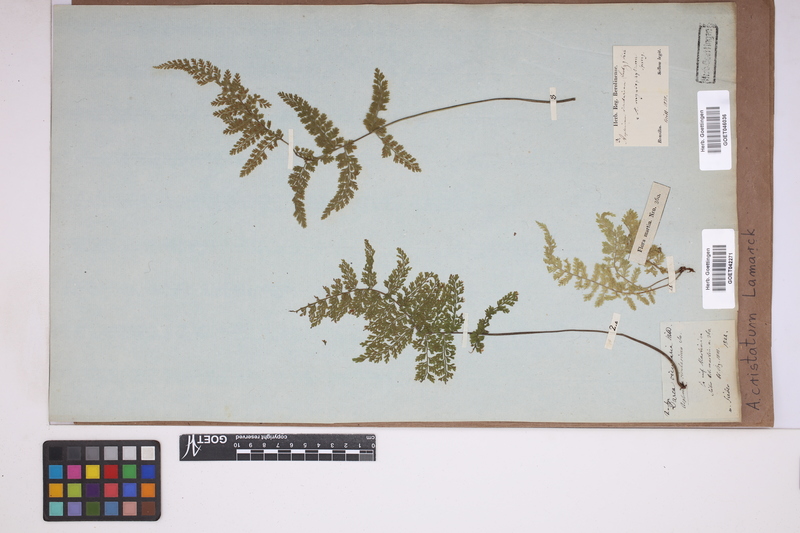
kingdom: Plantae
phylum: Tracheophyta
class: Polypodiopsida
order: Polypodiales
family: Aspleniaceae
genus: Asplenium
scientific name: Asplenium cristatum
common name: Parsley spleenwort
